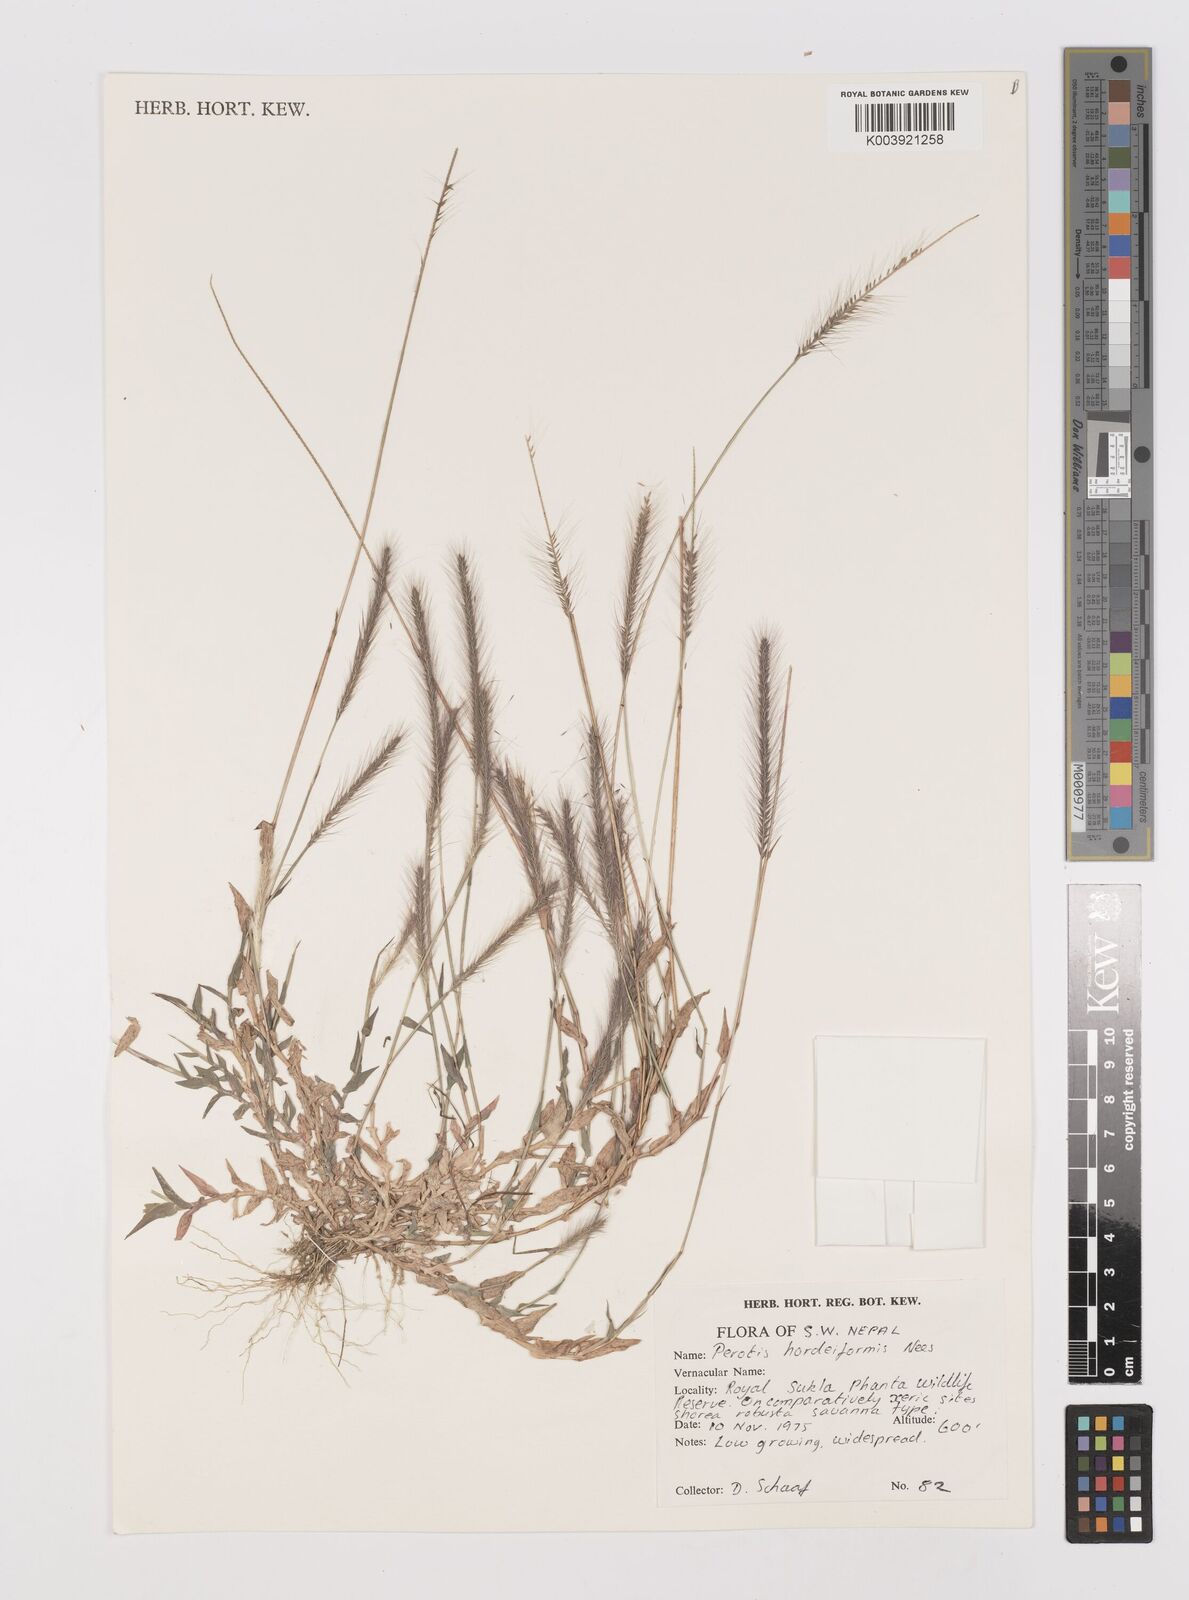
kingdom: Plantae
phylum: Tracheophyta
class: Liliopsida
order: Poales
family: Poaceae
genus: Perotis
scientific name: Perotis hordeiformis
